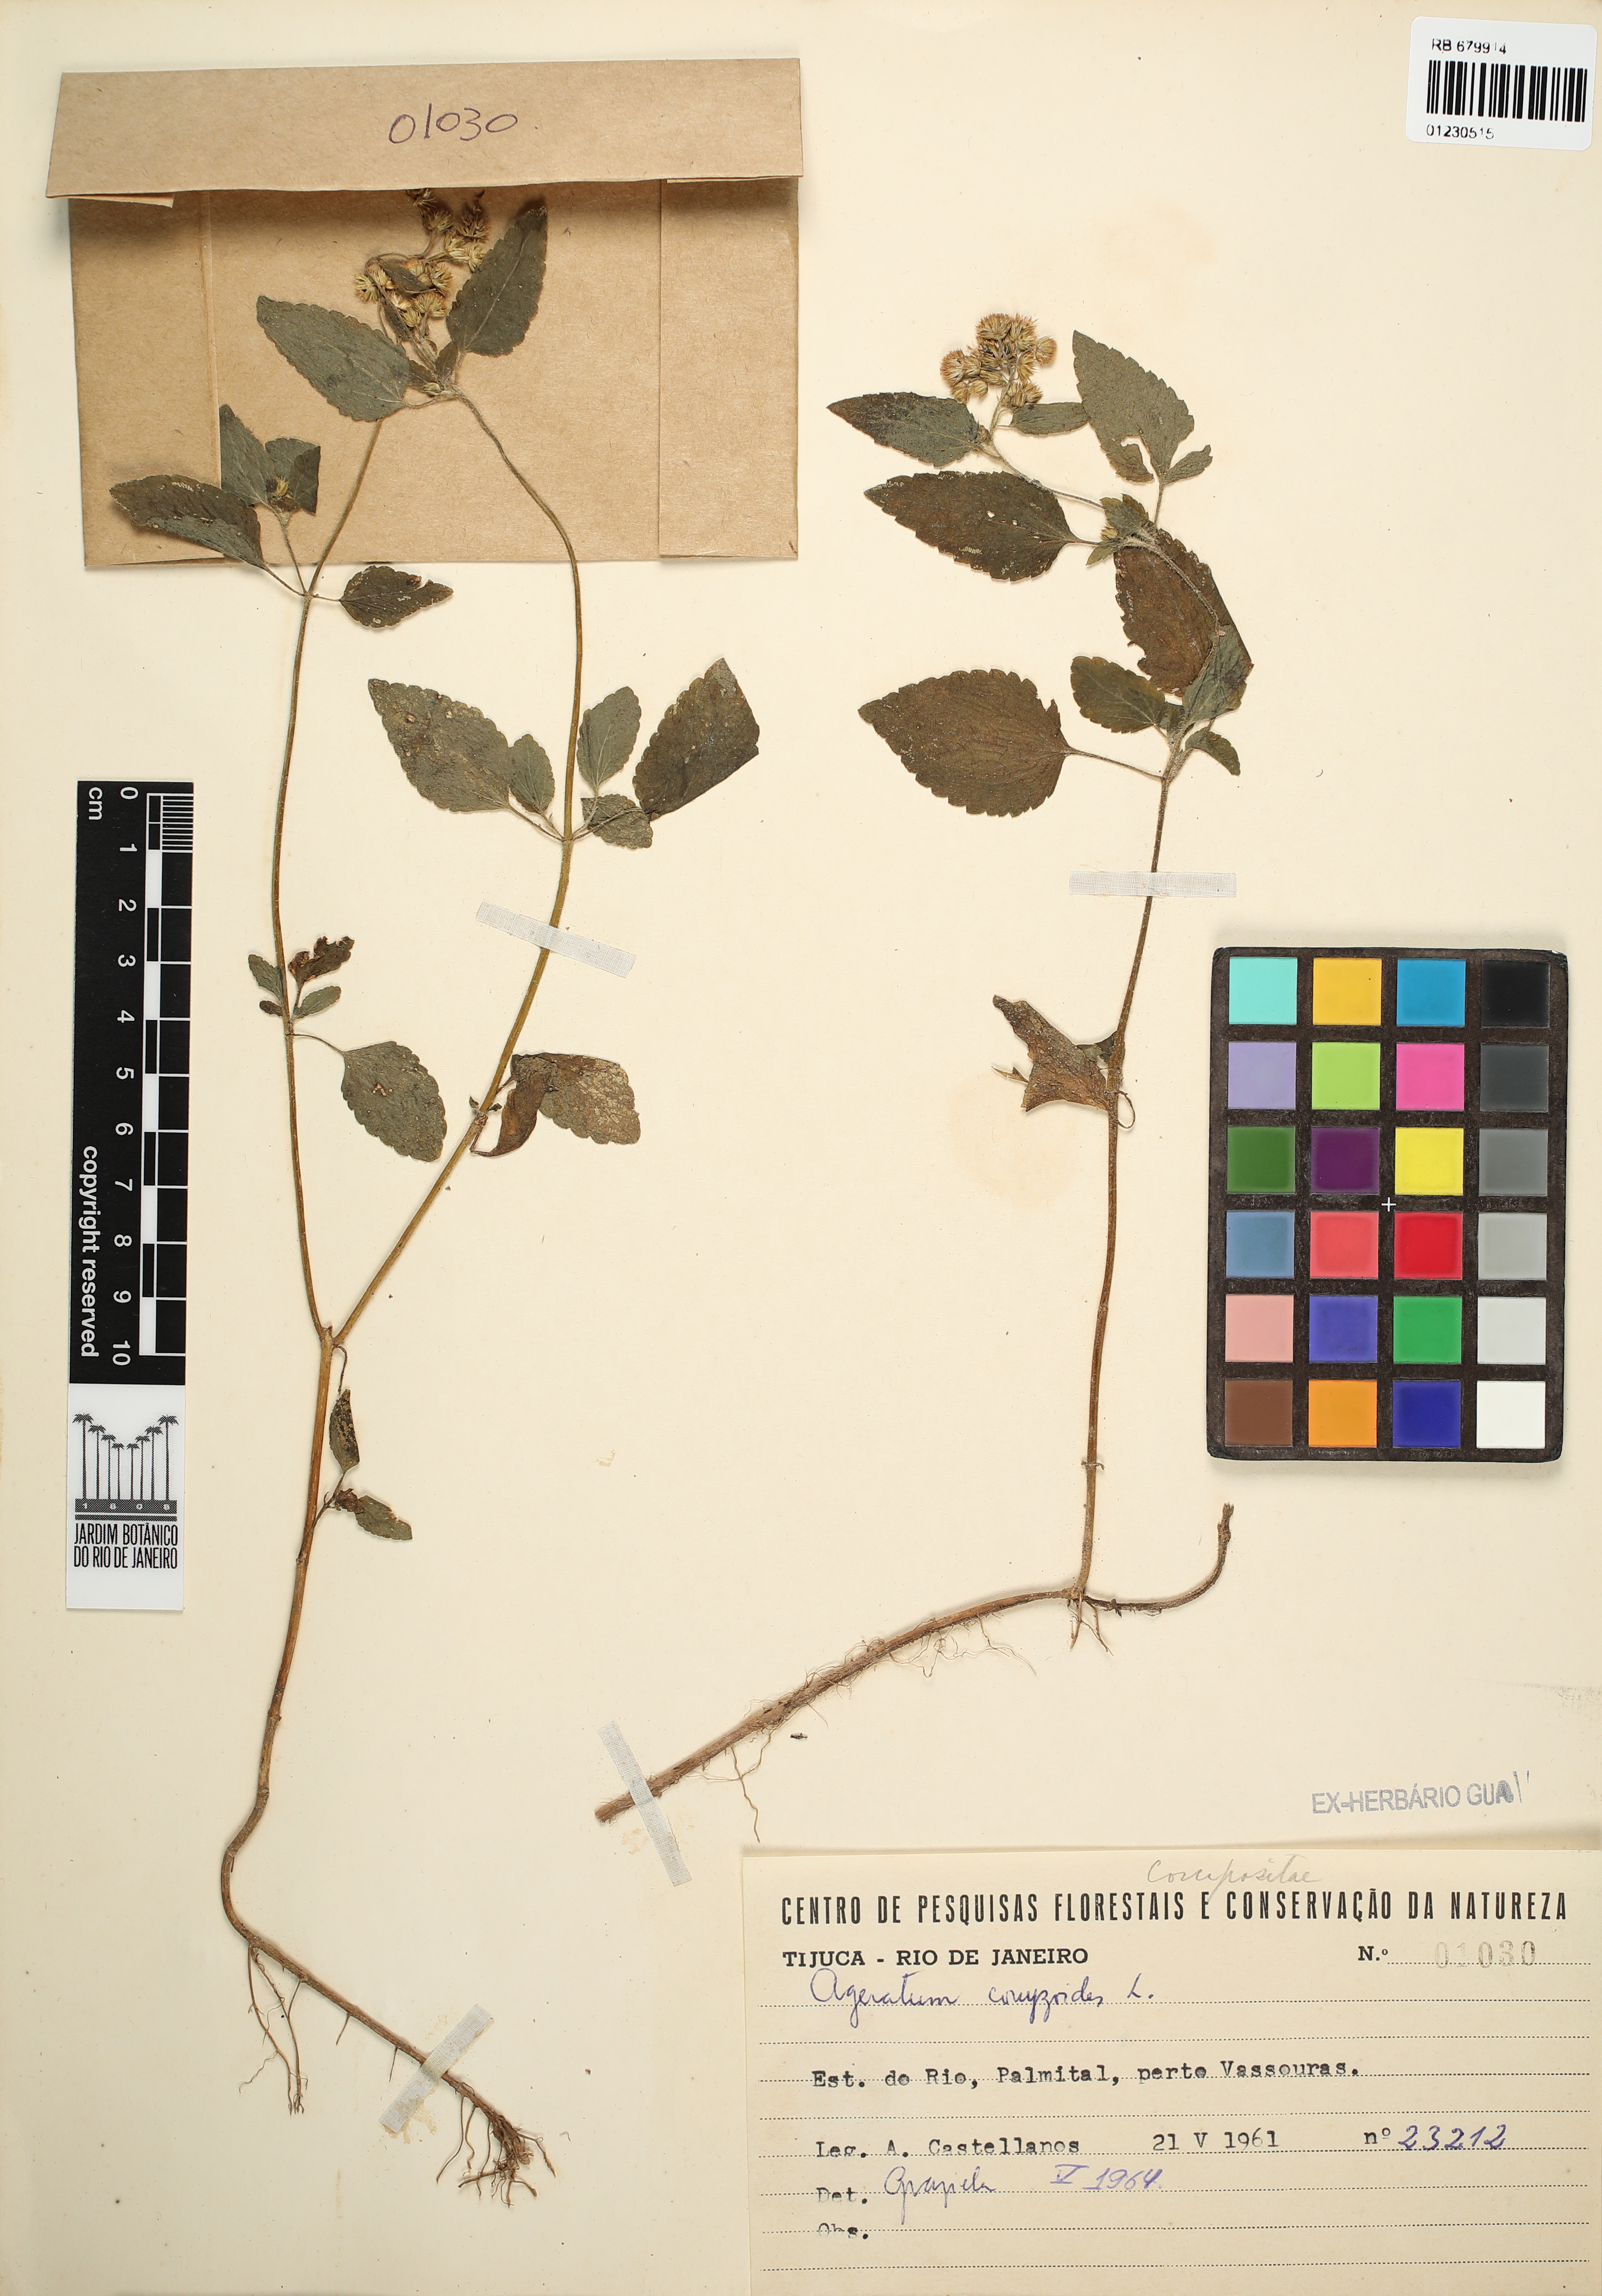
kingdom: Plantae
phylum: Tracheophyta
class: Magnoliopsida
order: Asterales
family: Asteraceae
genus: Ageratum
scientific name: Ageratum conyzoides
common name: Tropical whiteweed
